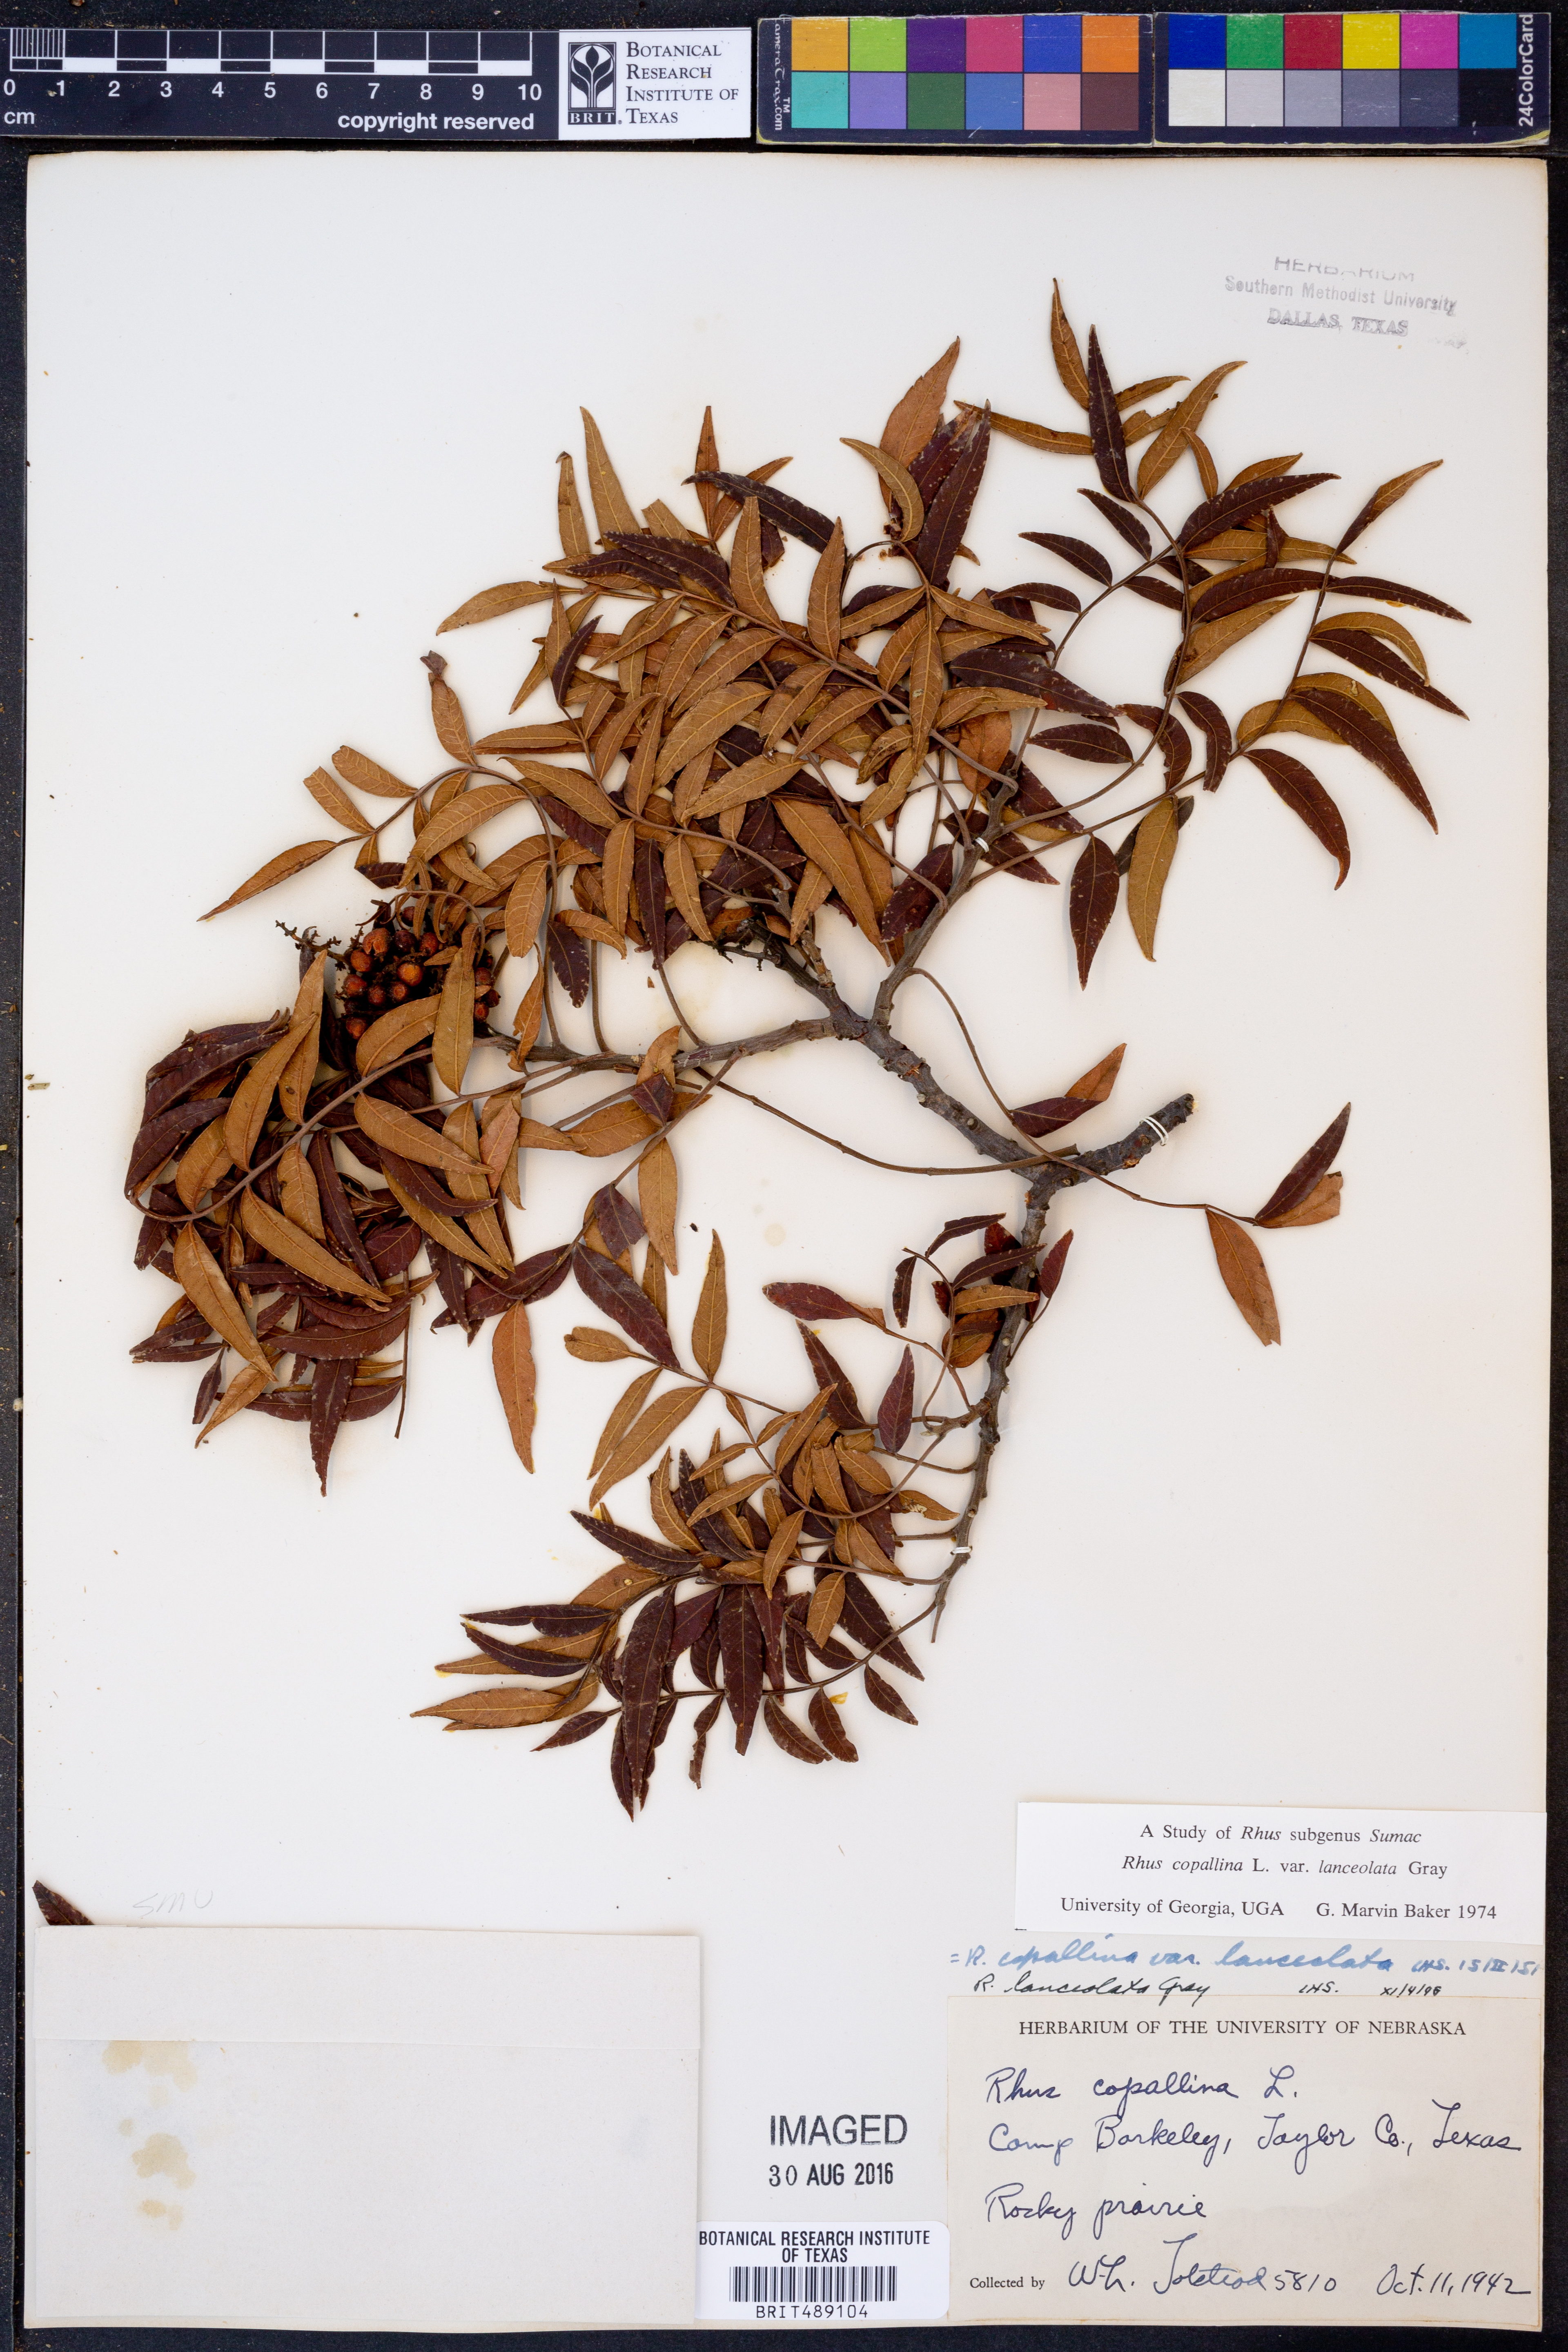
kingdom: Plantae
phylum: Tracheophyta
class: Magnoliopsida
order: Sapindales
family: Anacardiaceae
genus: Rhus
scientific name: Rhus lanceolata
